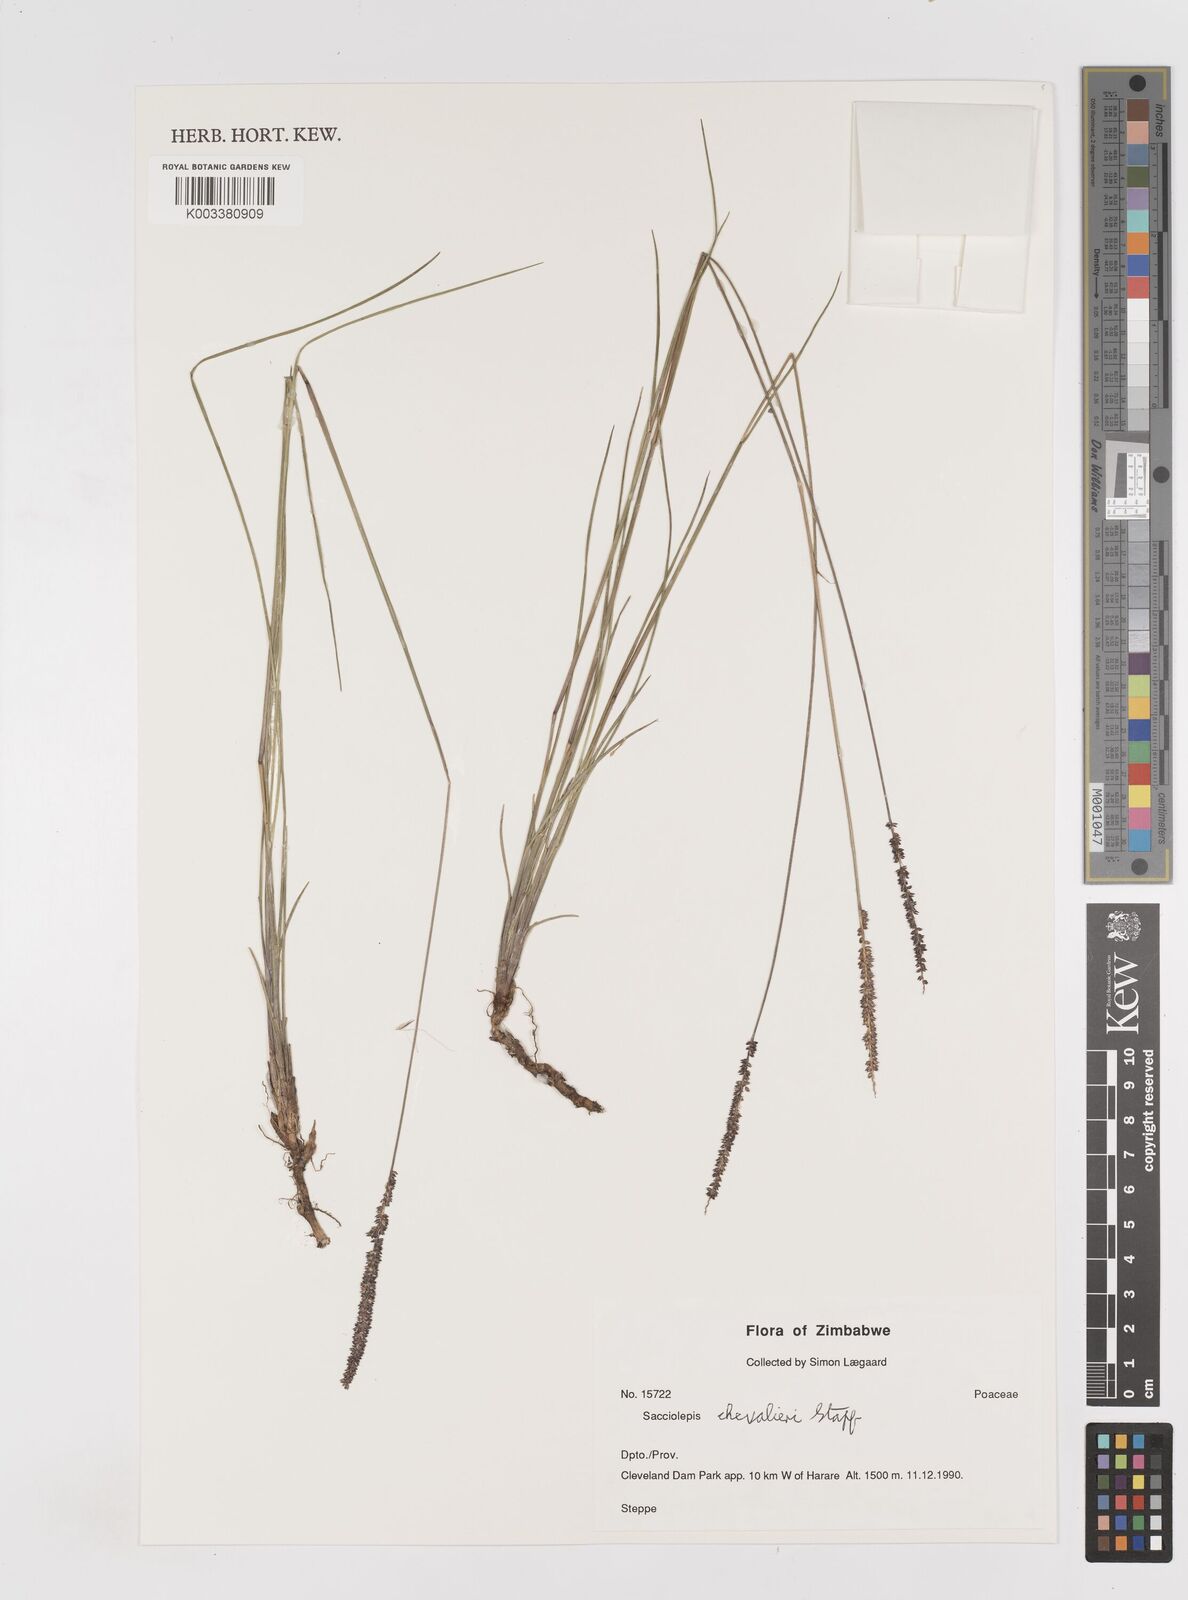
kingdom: Plantae
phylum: Tracheophyta
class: Liliopsida
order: Poales
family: Poaceae
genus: Sacciolepis
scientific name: Sacciolepis chevalieri
